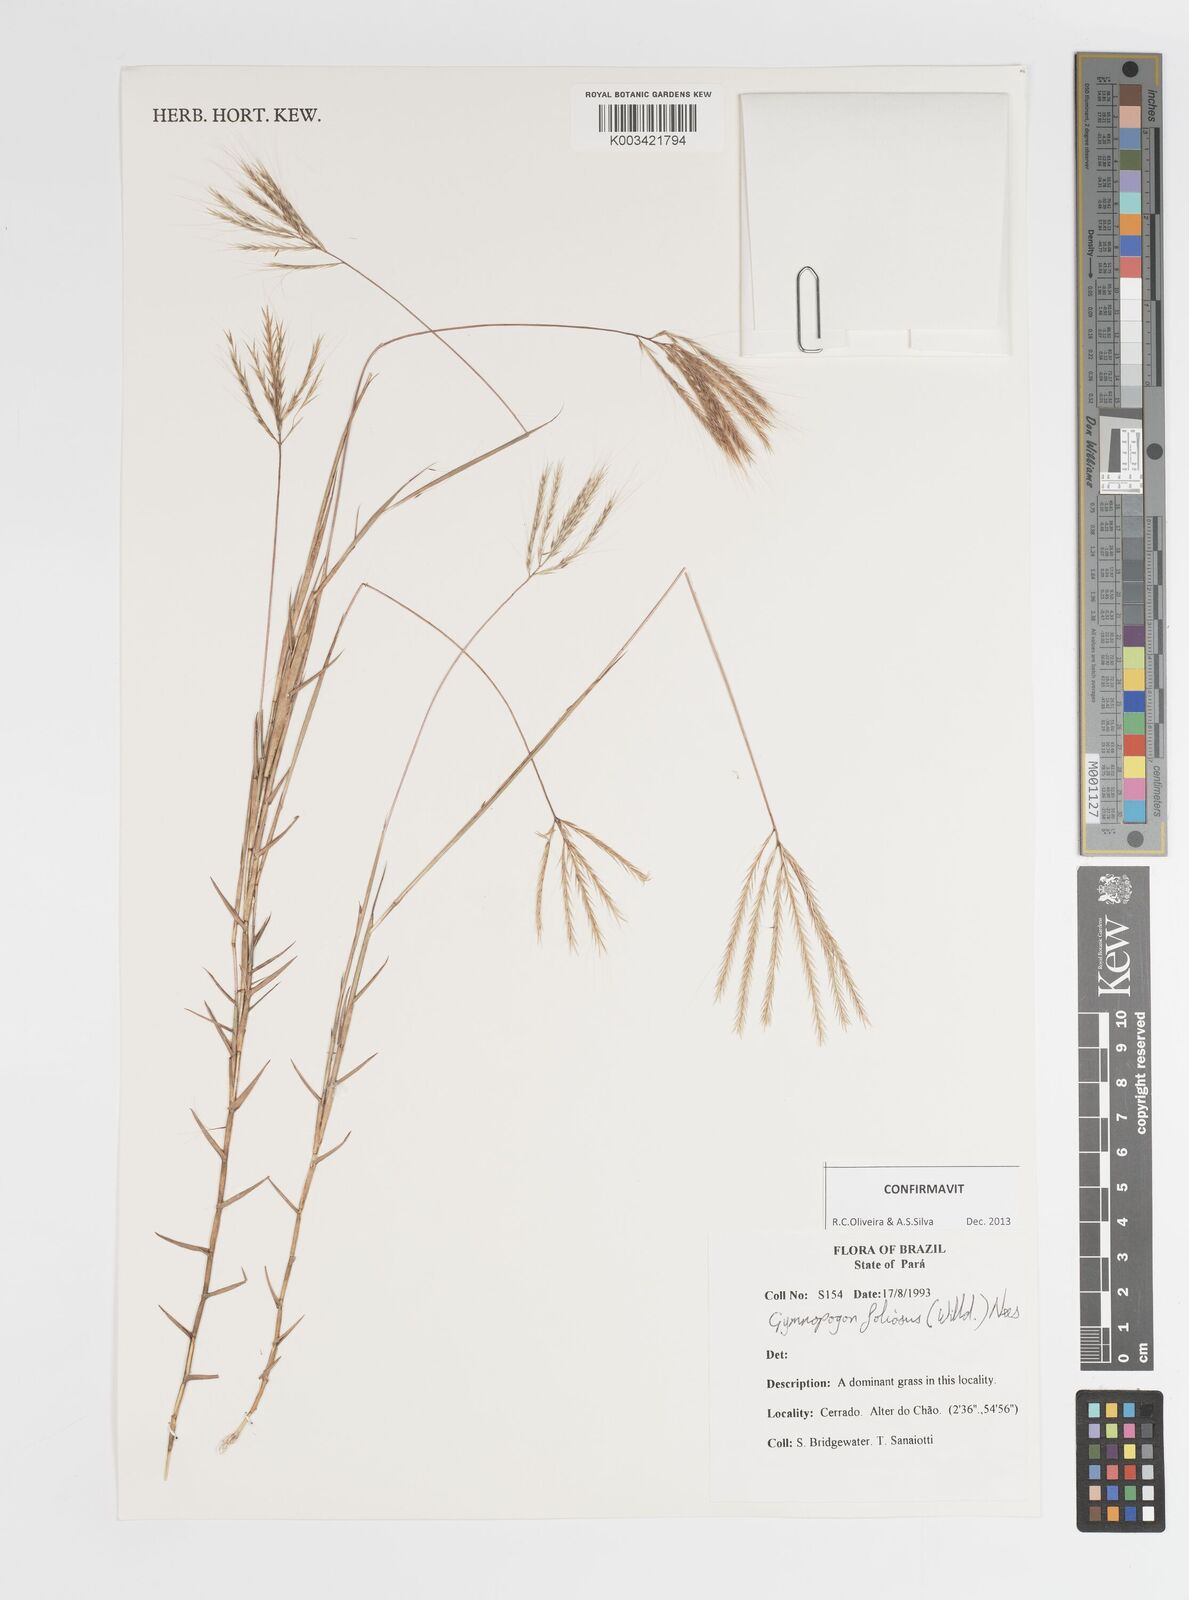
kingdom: Plantae
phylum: Tracheophyta
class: Liliopsida
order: Poales
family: Poaceae
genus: Gymnopogon
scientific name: Gymnopogon foliosus
